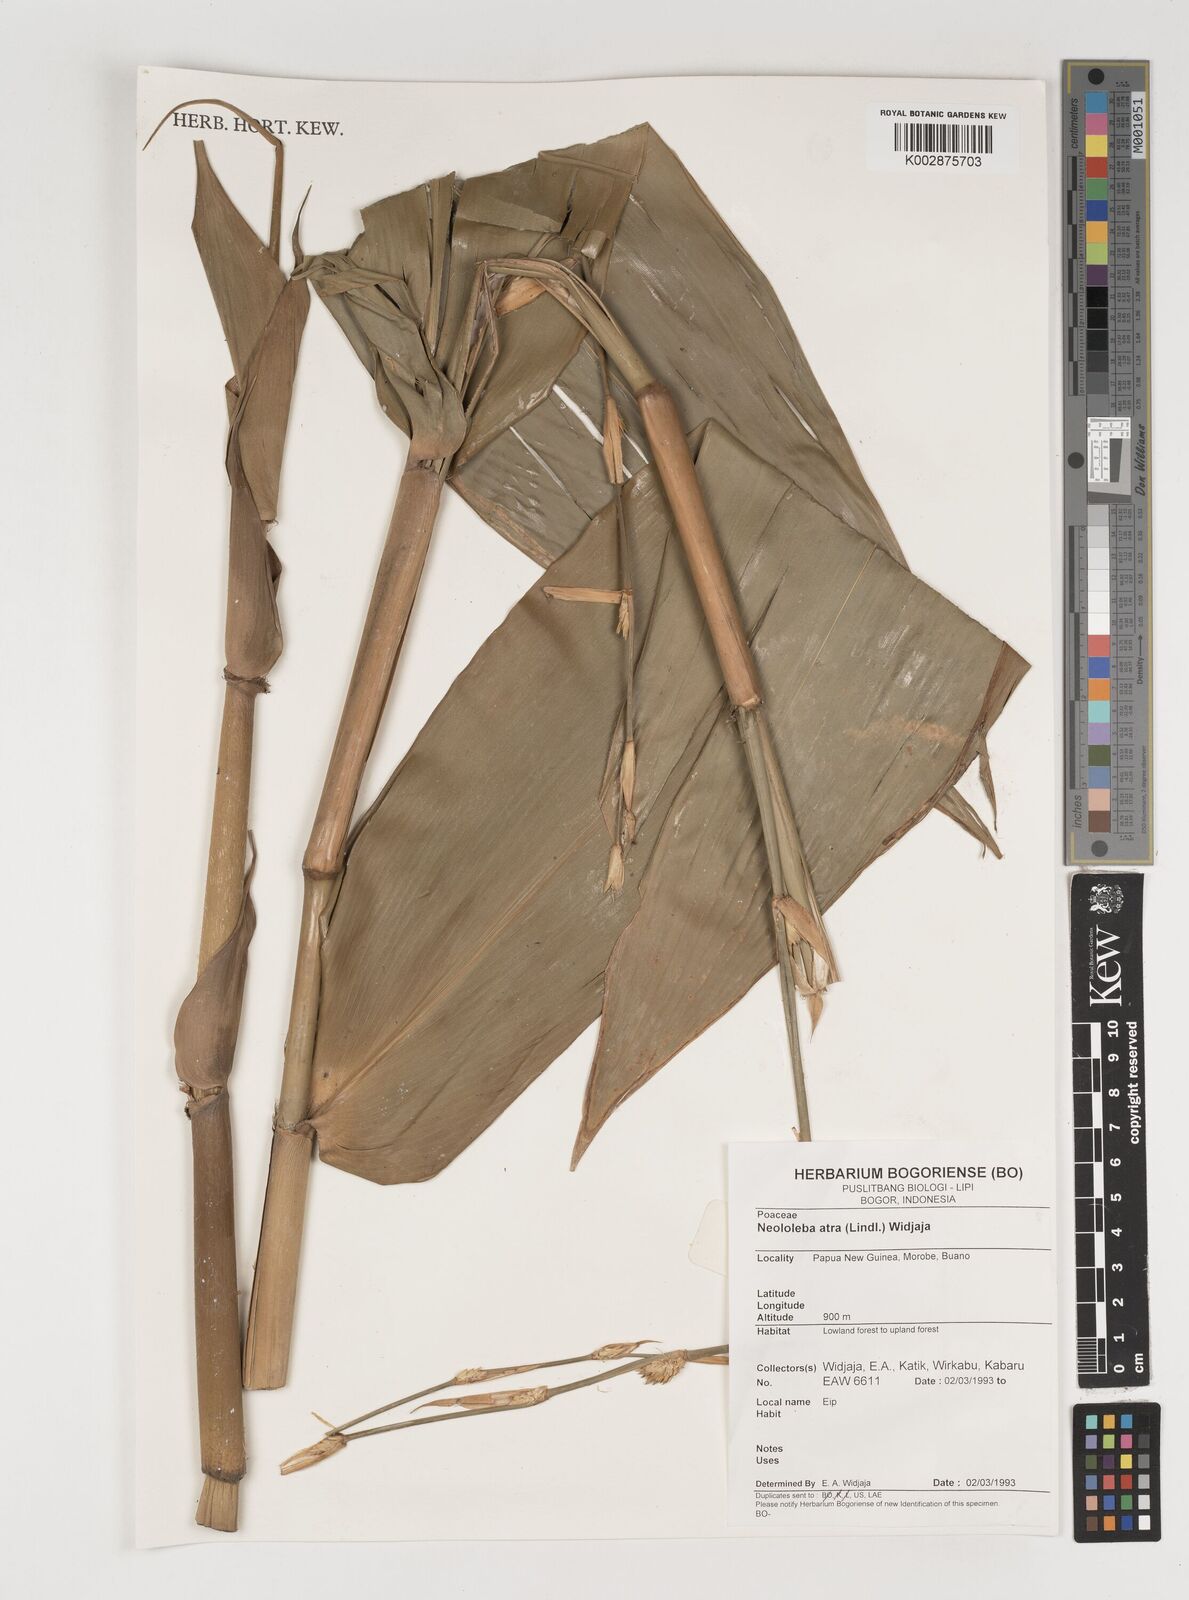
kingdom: Plantae
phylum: Tracheophyta
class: Liliopsida
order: Poales
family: Poaceae
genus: Neololeba
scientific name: Neololeba atra
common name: Cape bamboo
